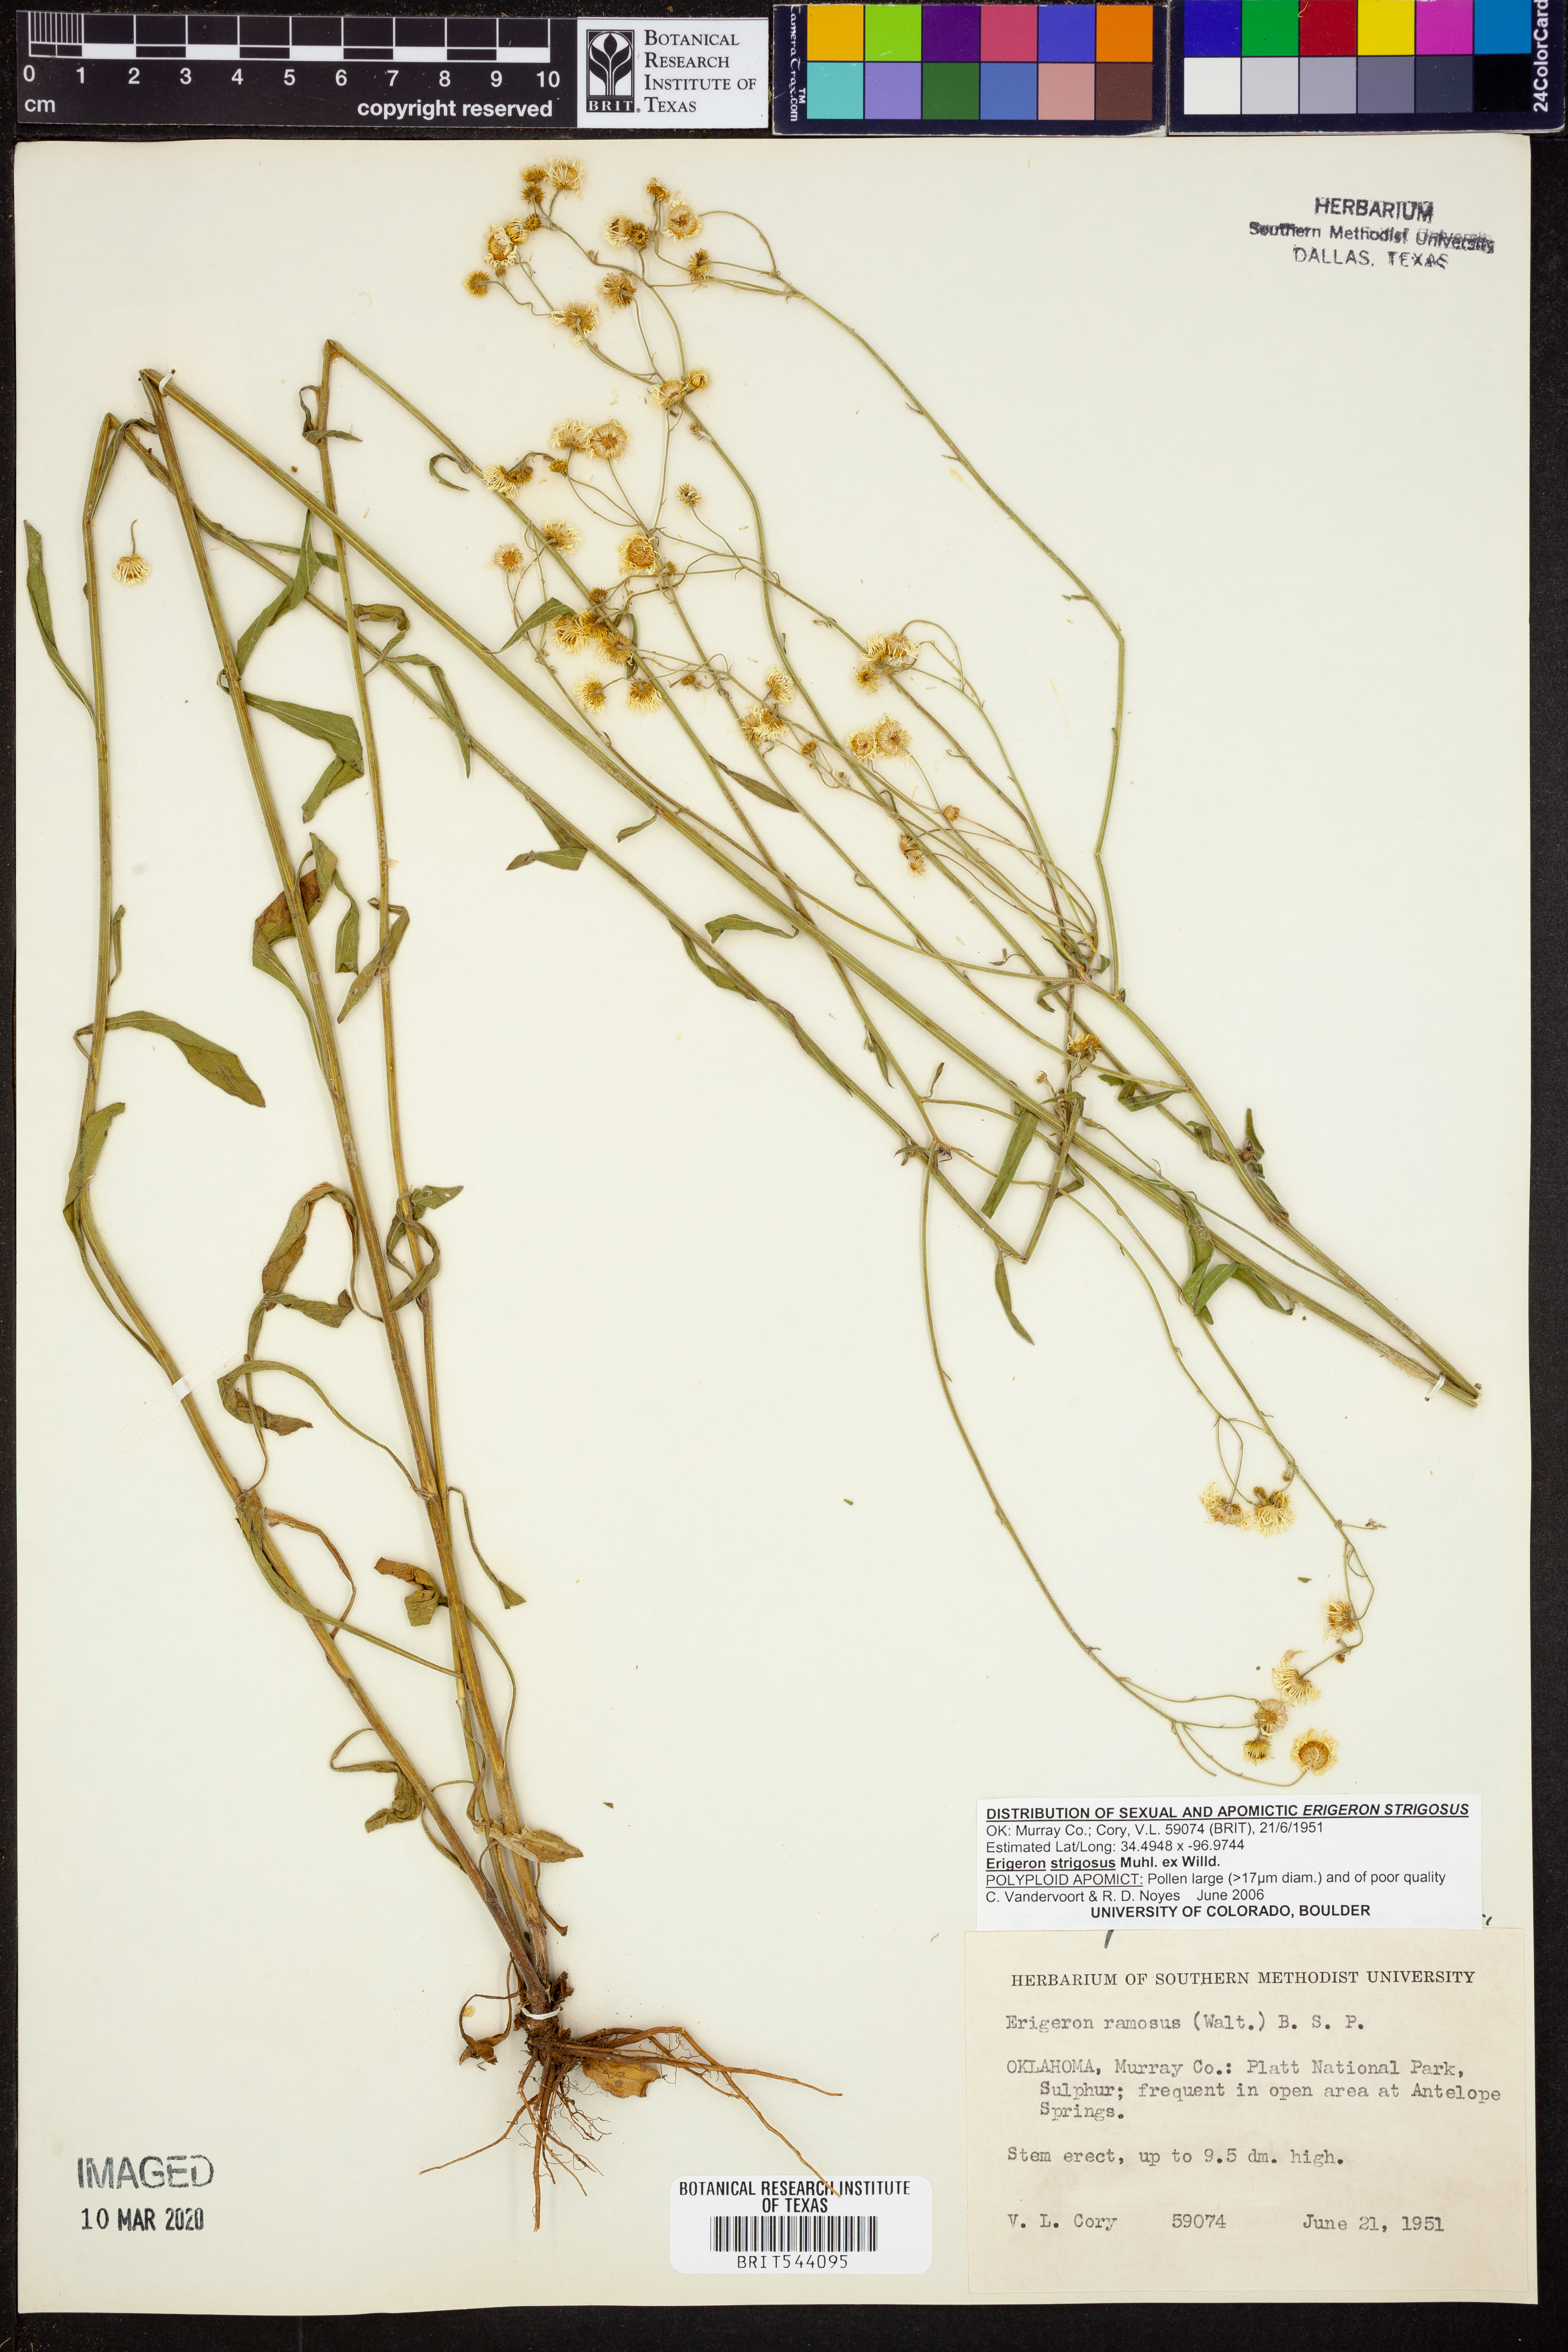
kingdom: Plantae
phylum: Tracheophyta
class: Magnoliopsida
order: Asterales
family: Asteraceae
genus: Erigeron
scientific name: Erigeron strigosus
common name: Common eastern fleabane
